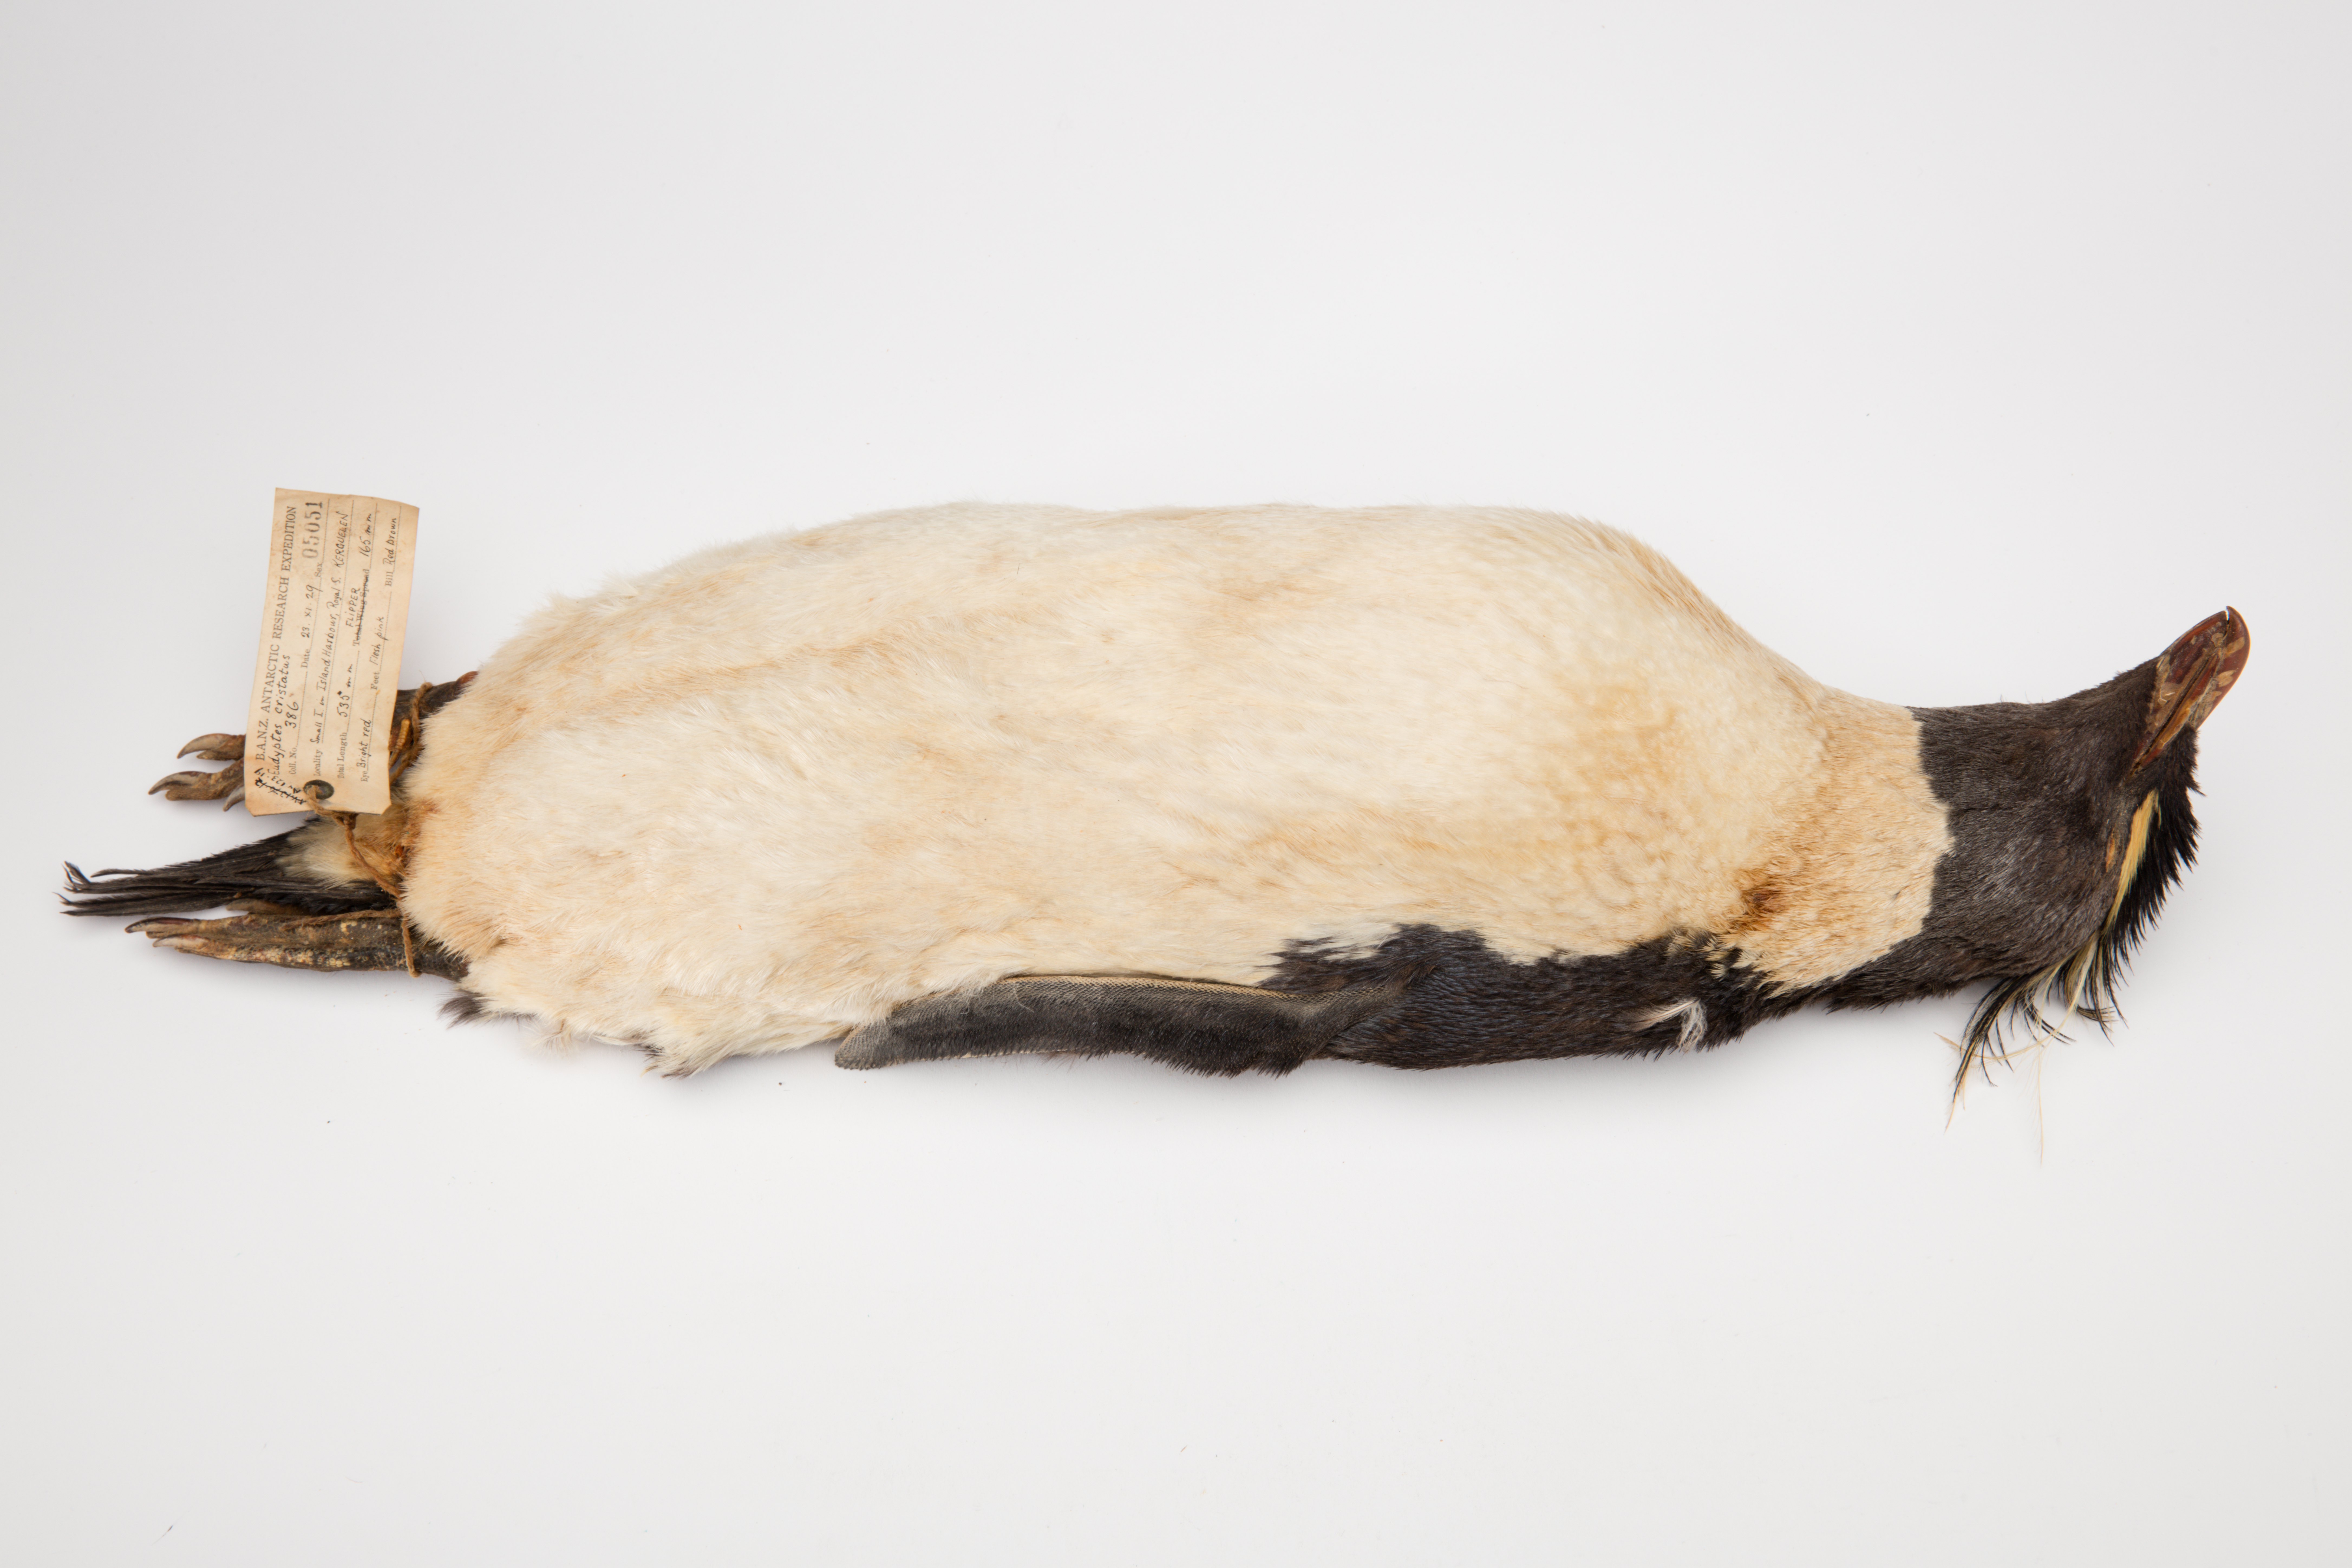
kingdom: Animalia
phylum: Chordata
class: Aves
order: Sphenisciformes
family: Spheniscidae
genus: Eudyptes
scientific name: Eudyptes chrysocome
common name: Southern rockhopper penguin
